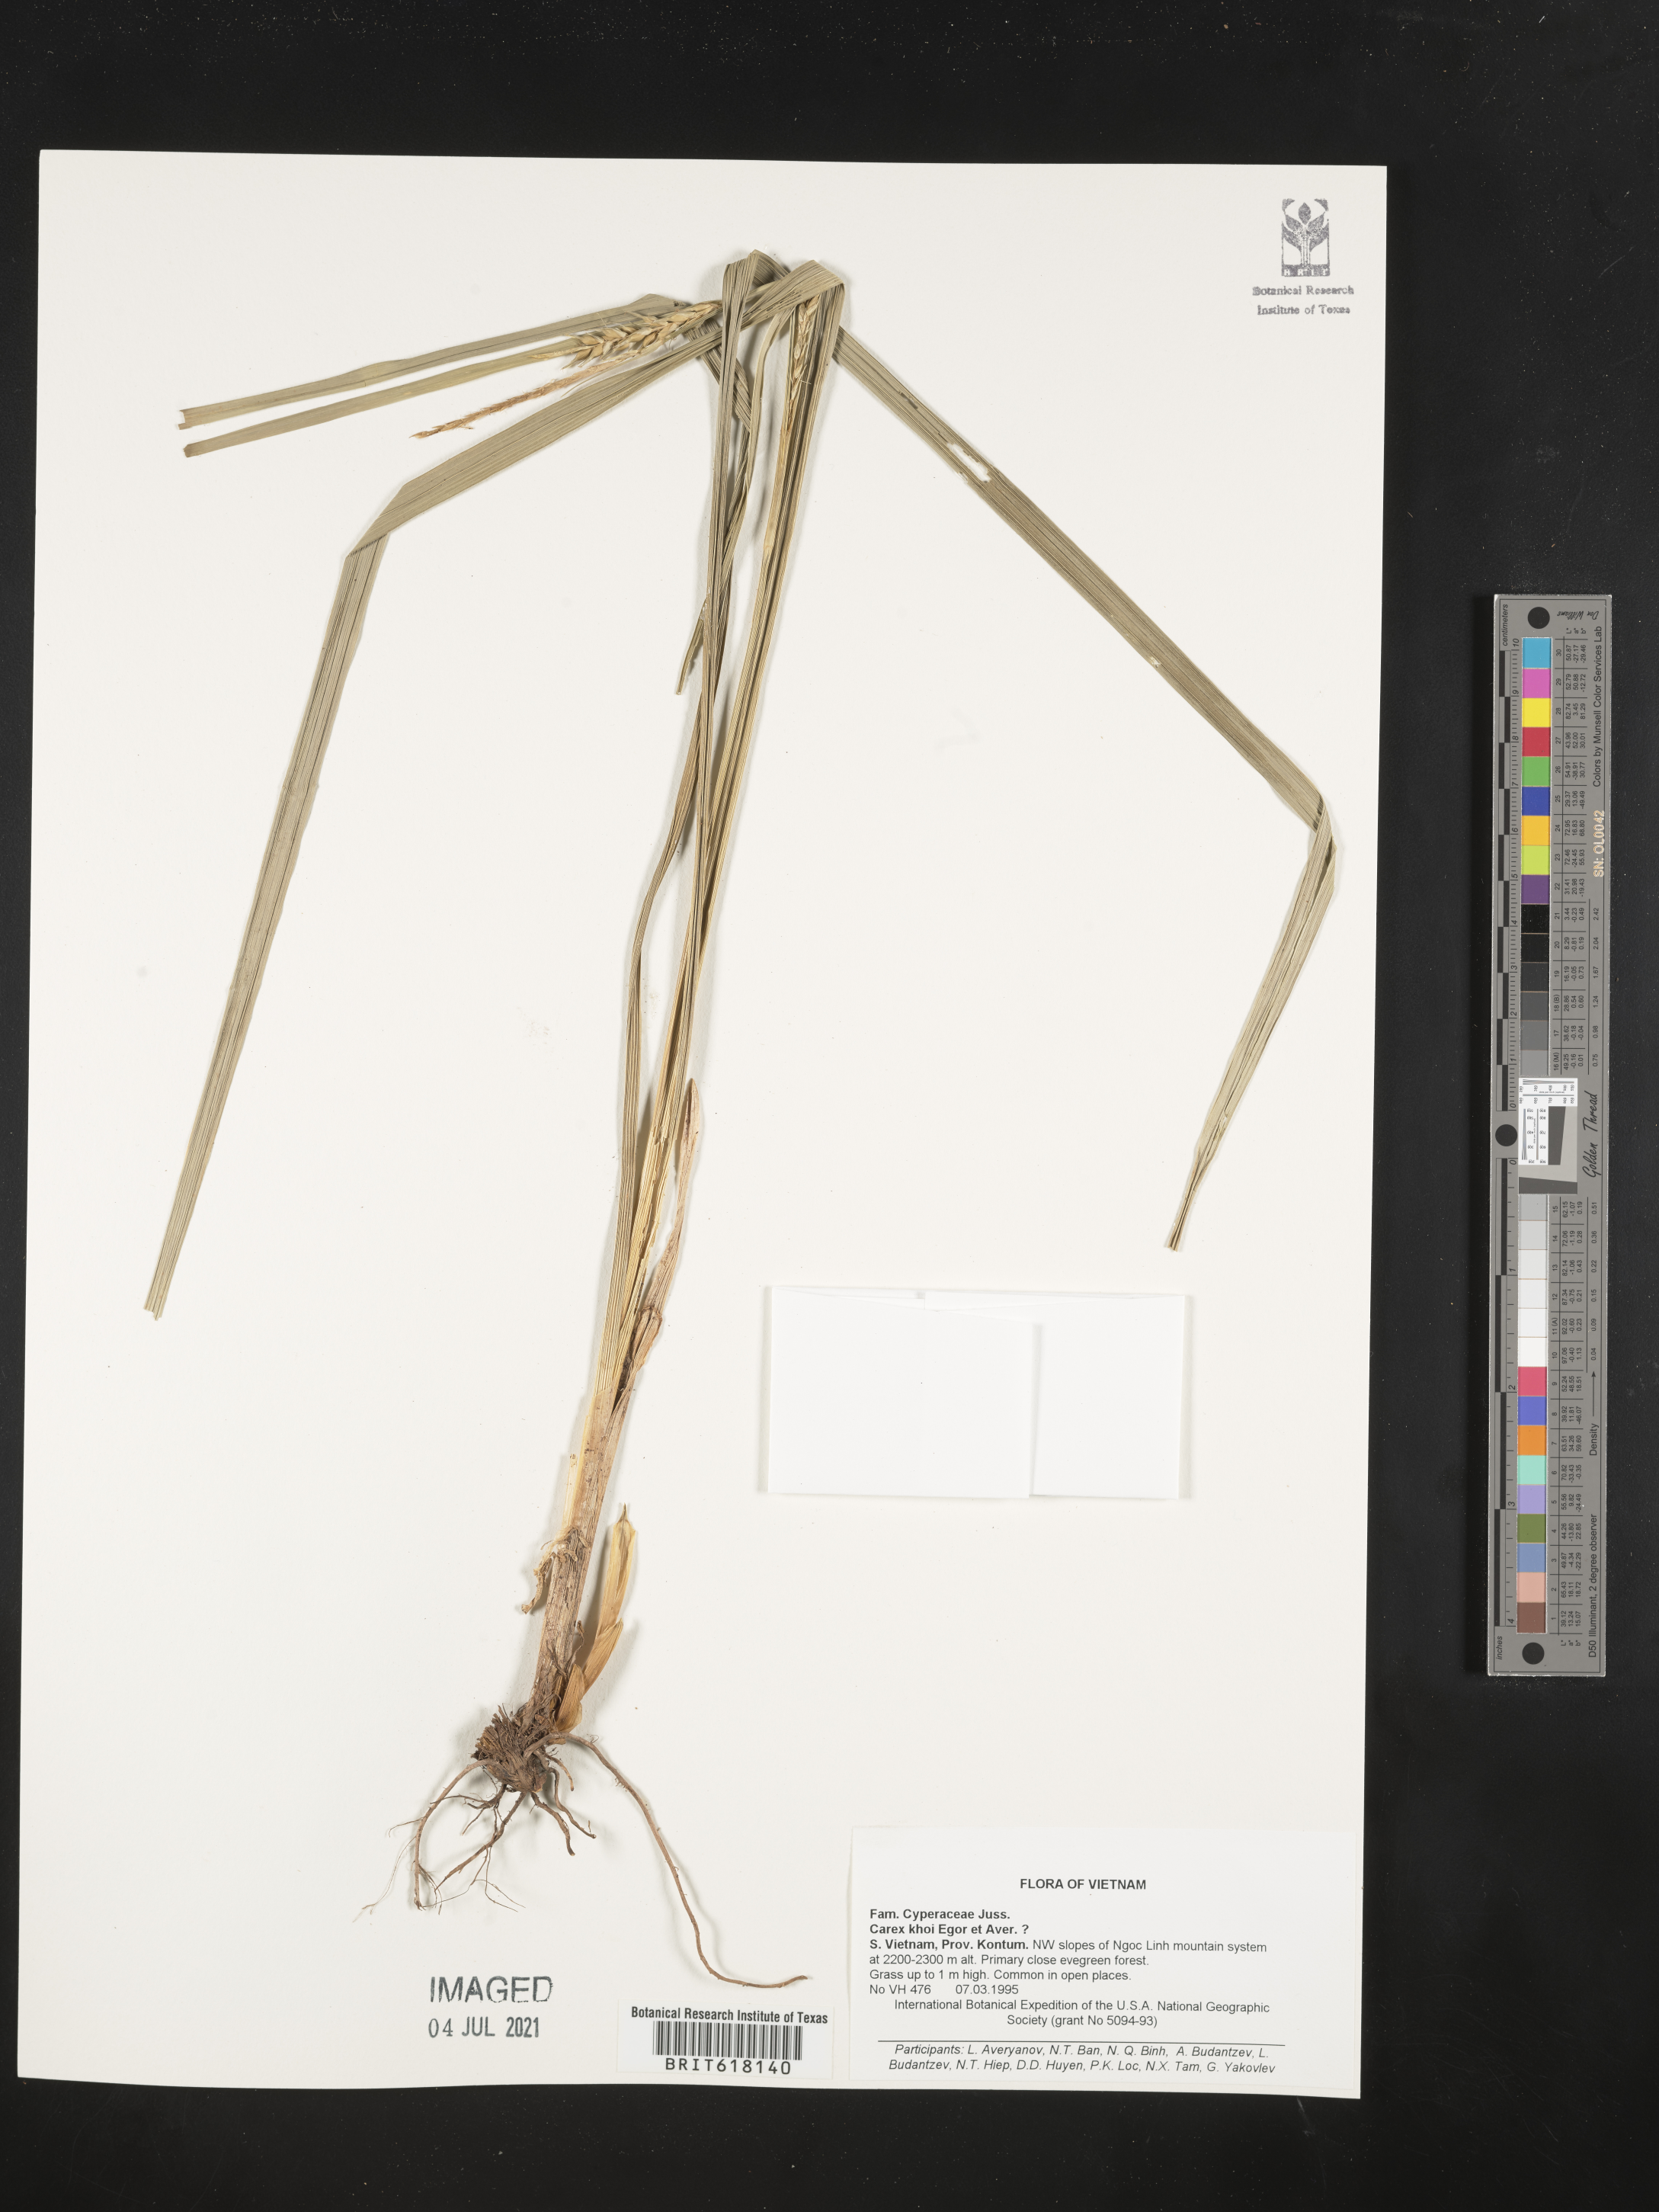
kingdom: Plantae
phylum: Tracheophyta
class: Liliopsida
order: Poales
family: Cyperaceae
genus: Carex
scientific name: Carex harlandii
